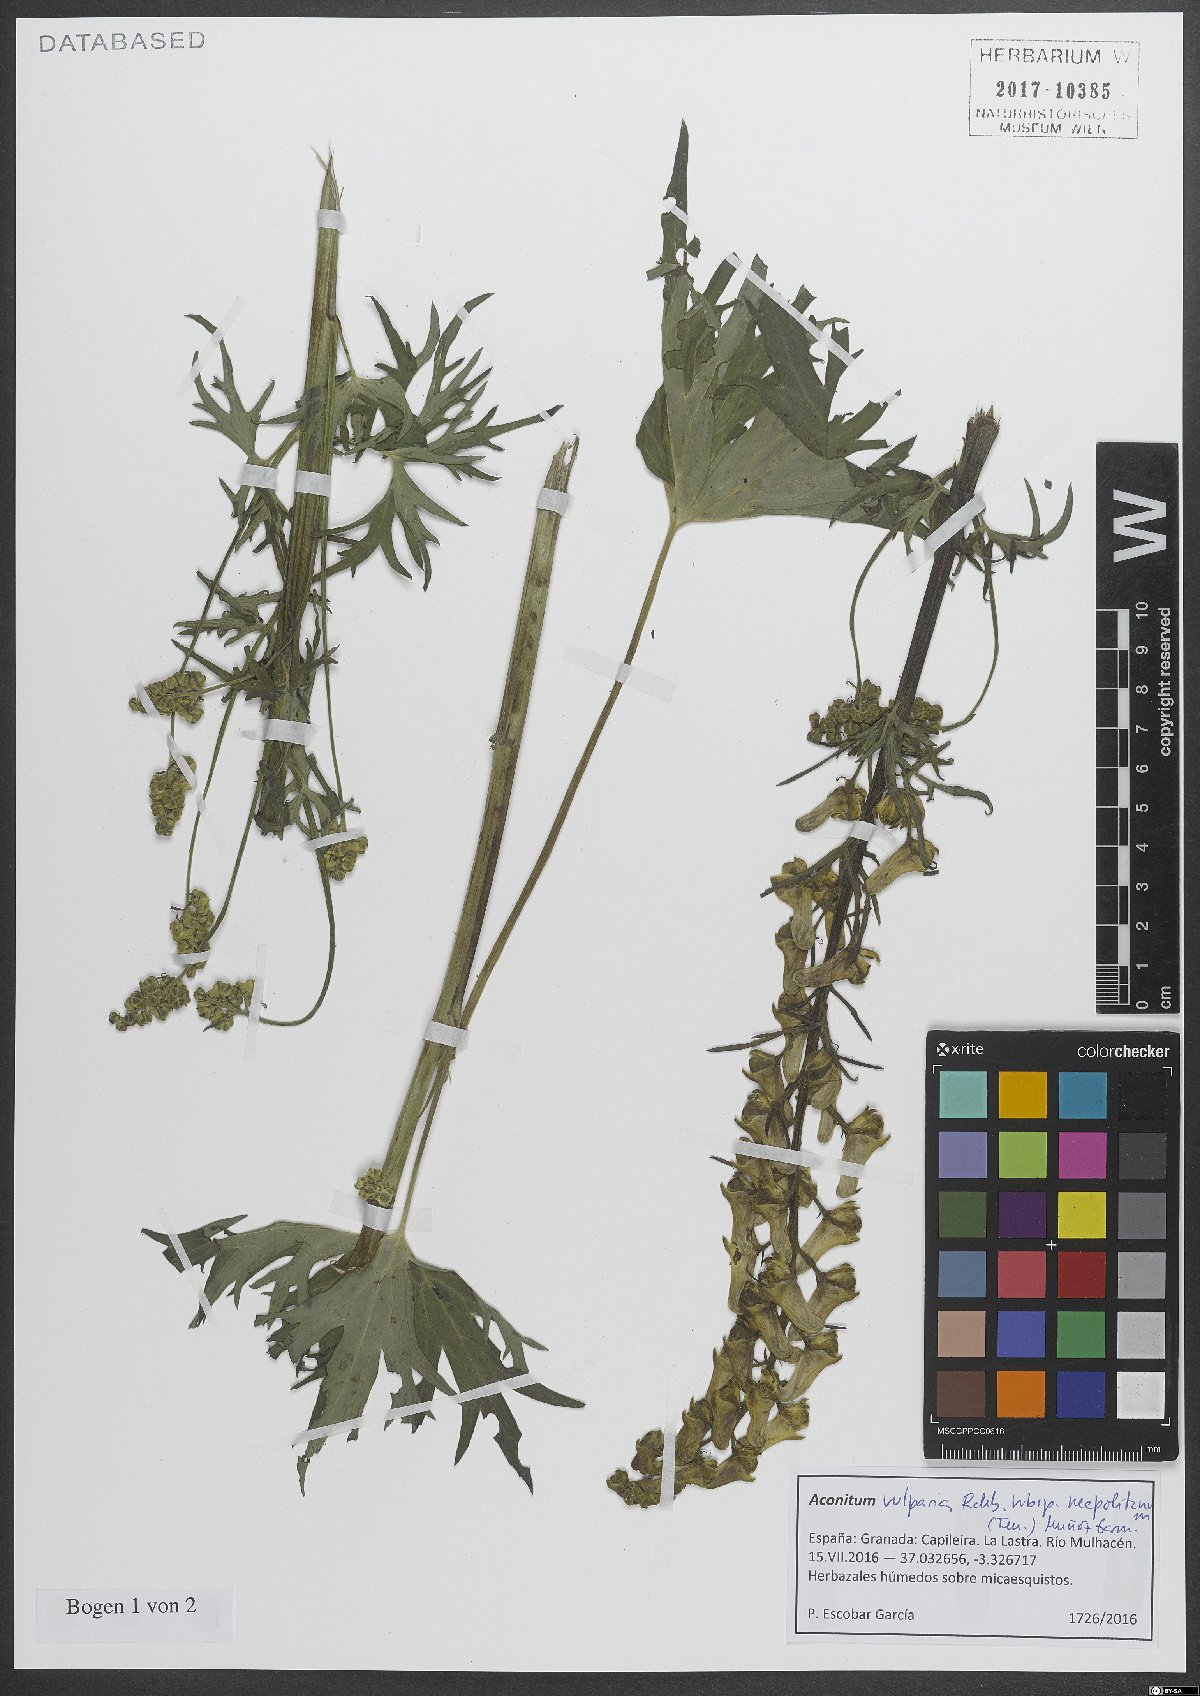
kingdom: Plantae
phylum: Tracheophyta
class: Magnoliopsida
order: Ranunculales
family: Ranunculaceae
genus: Aconitum
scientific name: Aconitum lycoctonum
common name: Wolf's-bane
